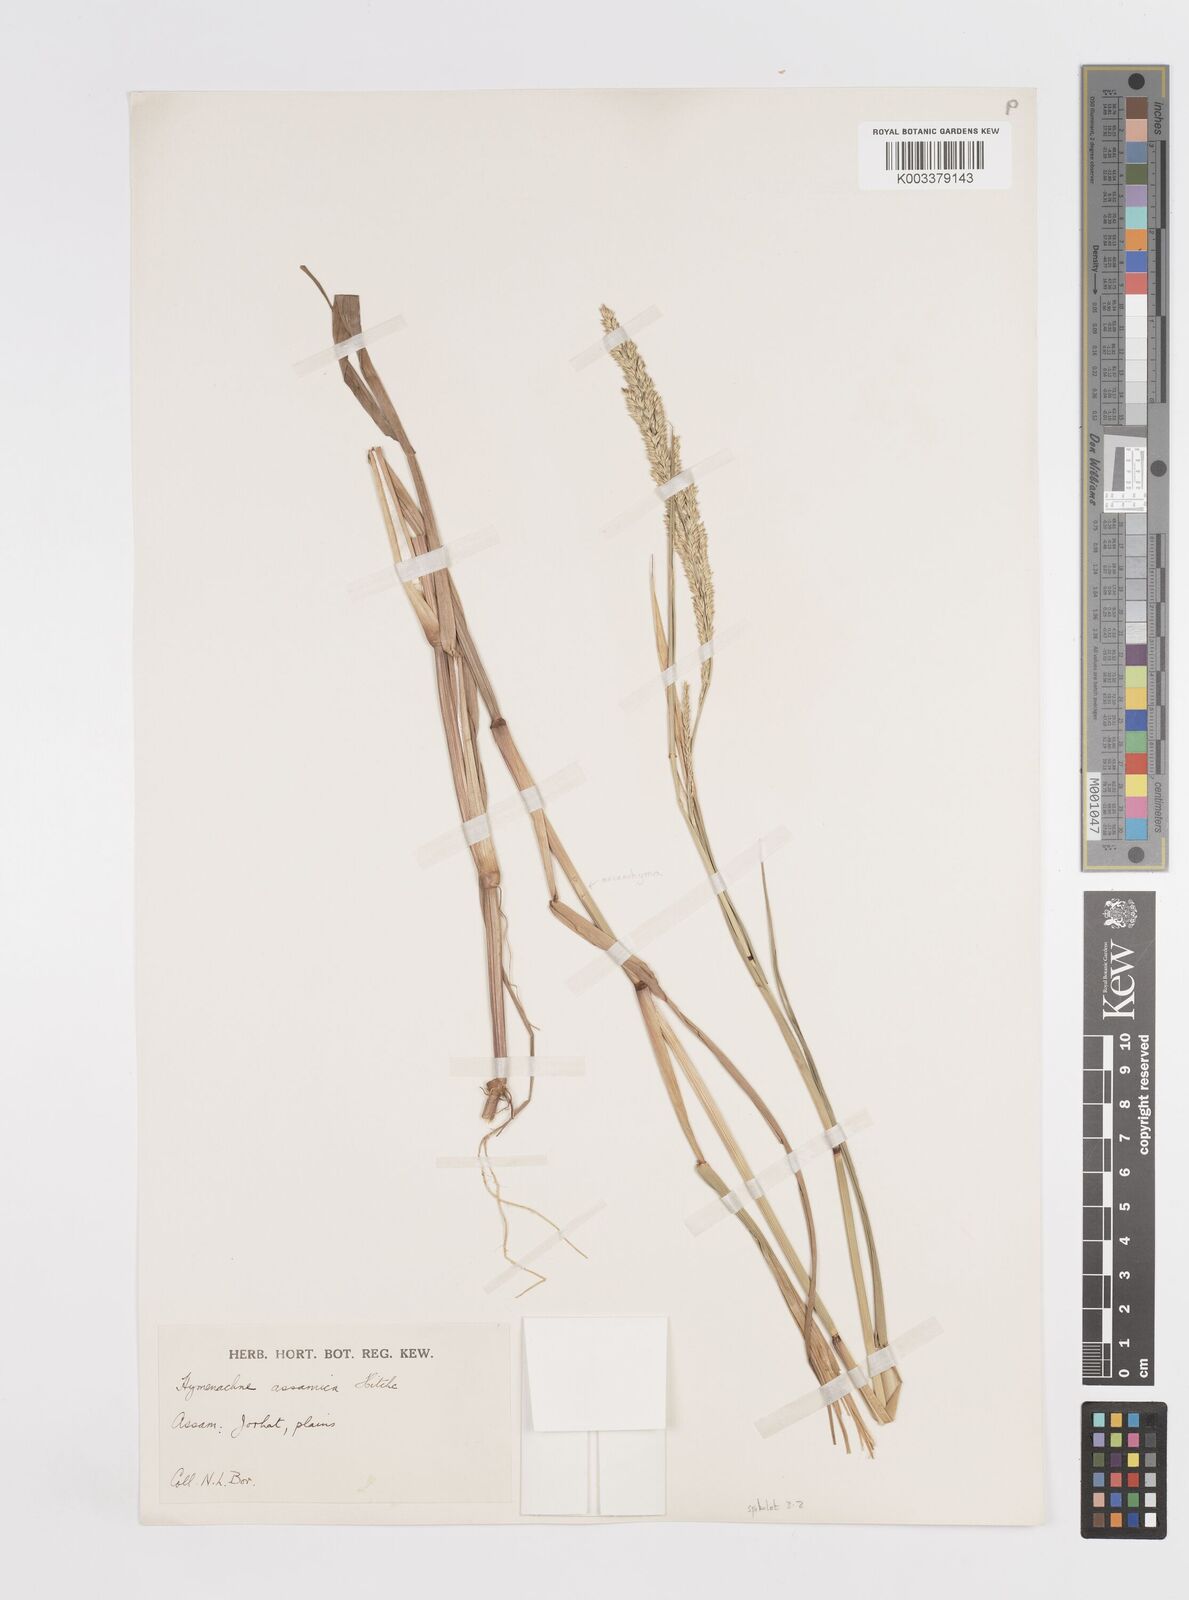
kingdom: Plantae
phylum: Tracheophyta
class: Liliopsida
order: Poales
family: Poaceae
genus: Hymenachne
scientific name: Hymenachne assamica
